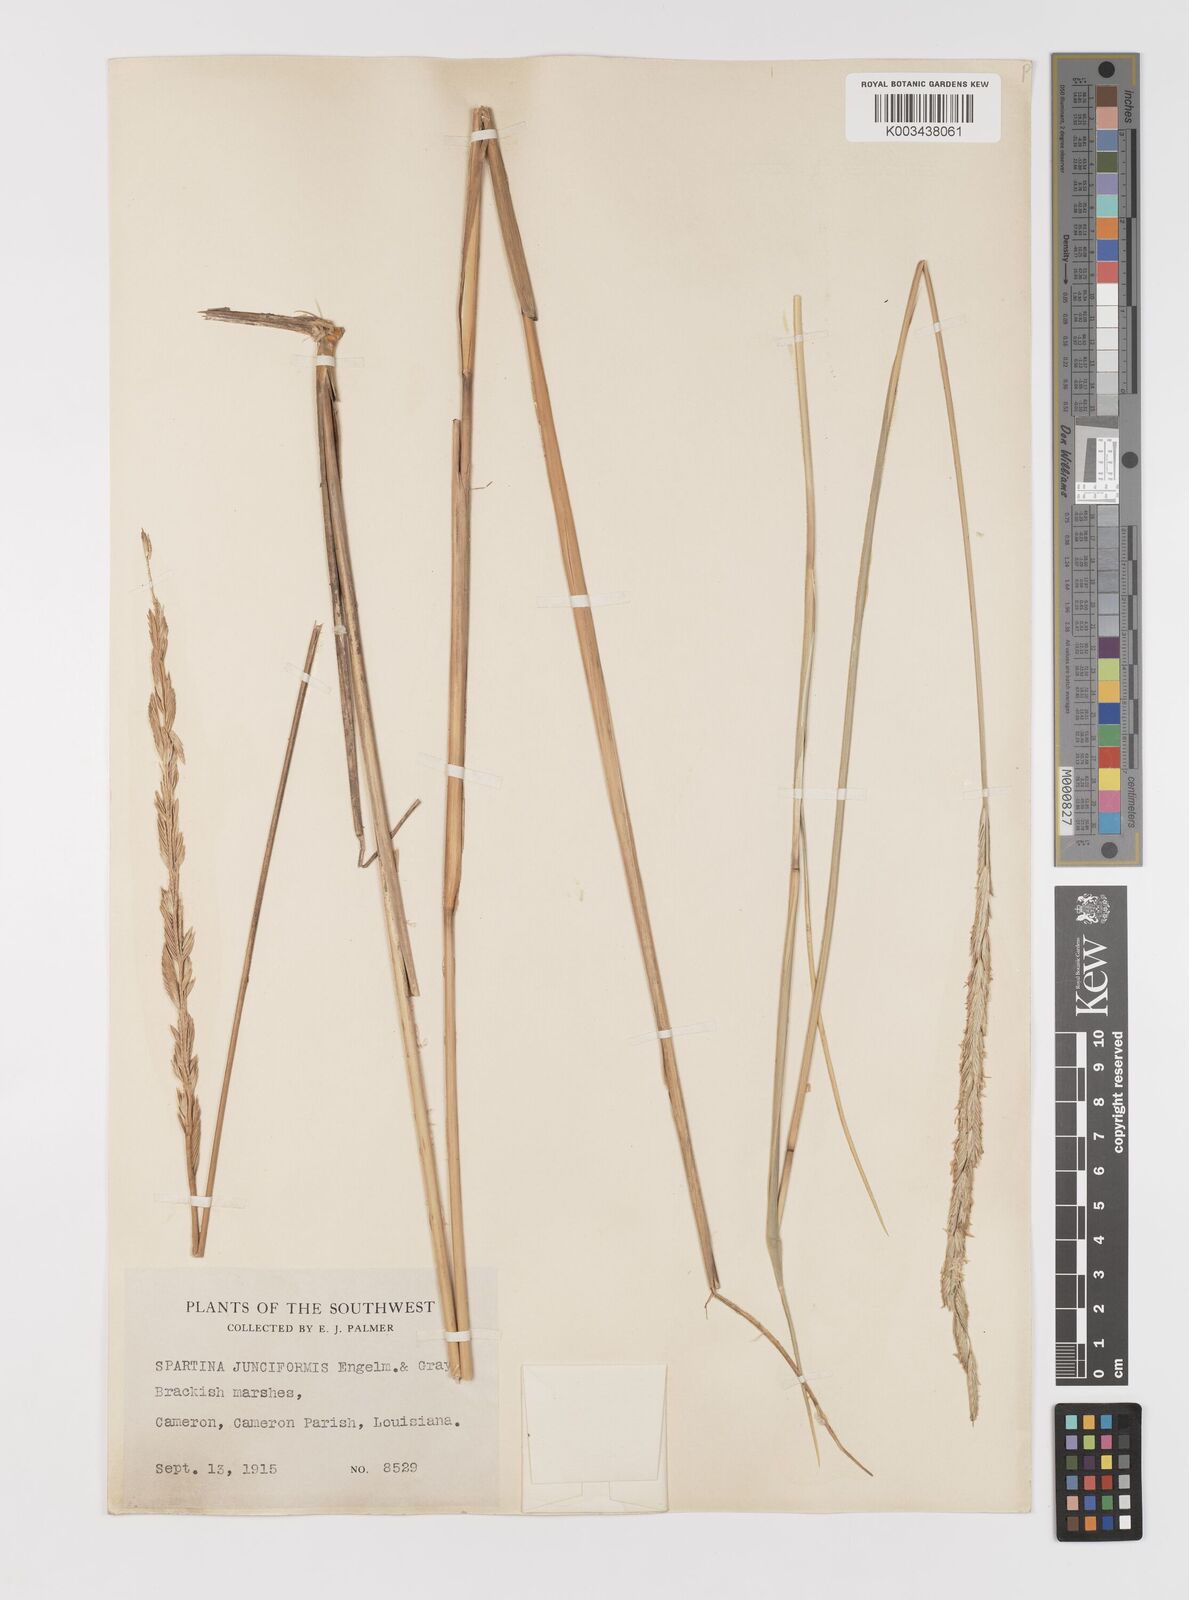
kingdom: Plantae
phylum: Tracheophyta
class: Liliopsida
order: Poales
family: Poaceae
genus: Sporobolus
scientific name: Sporobolus spartinae
